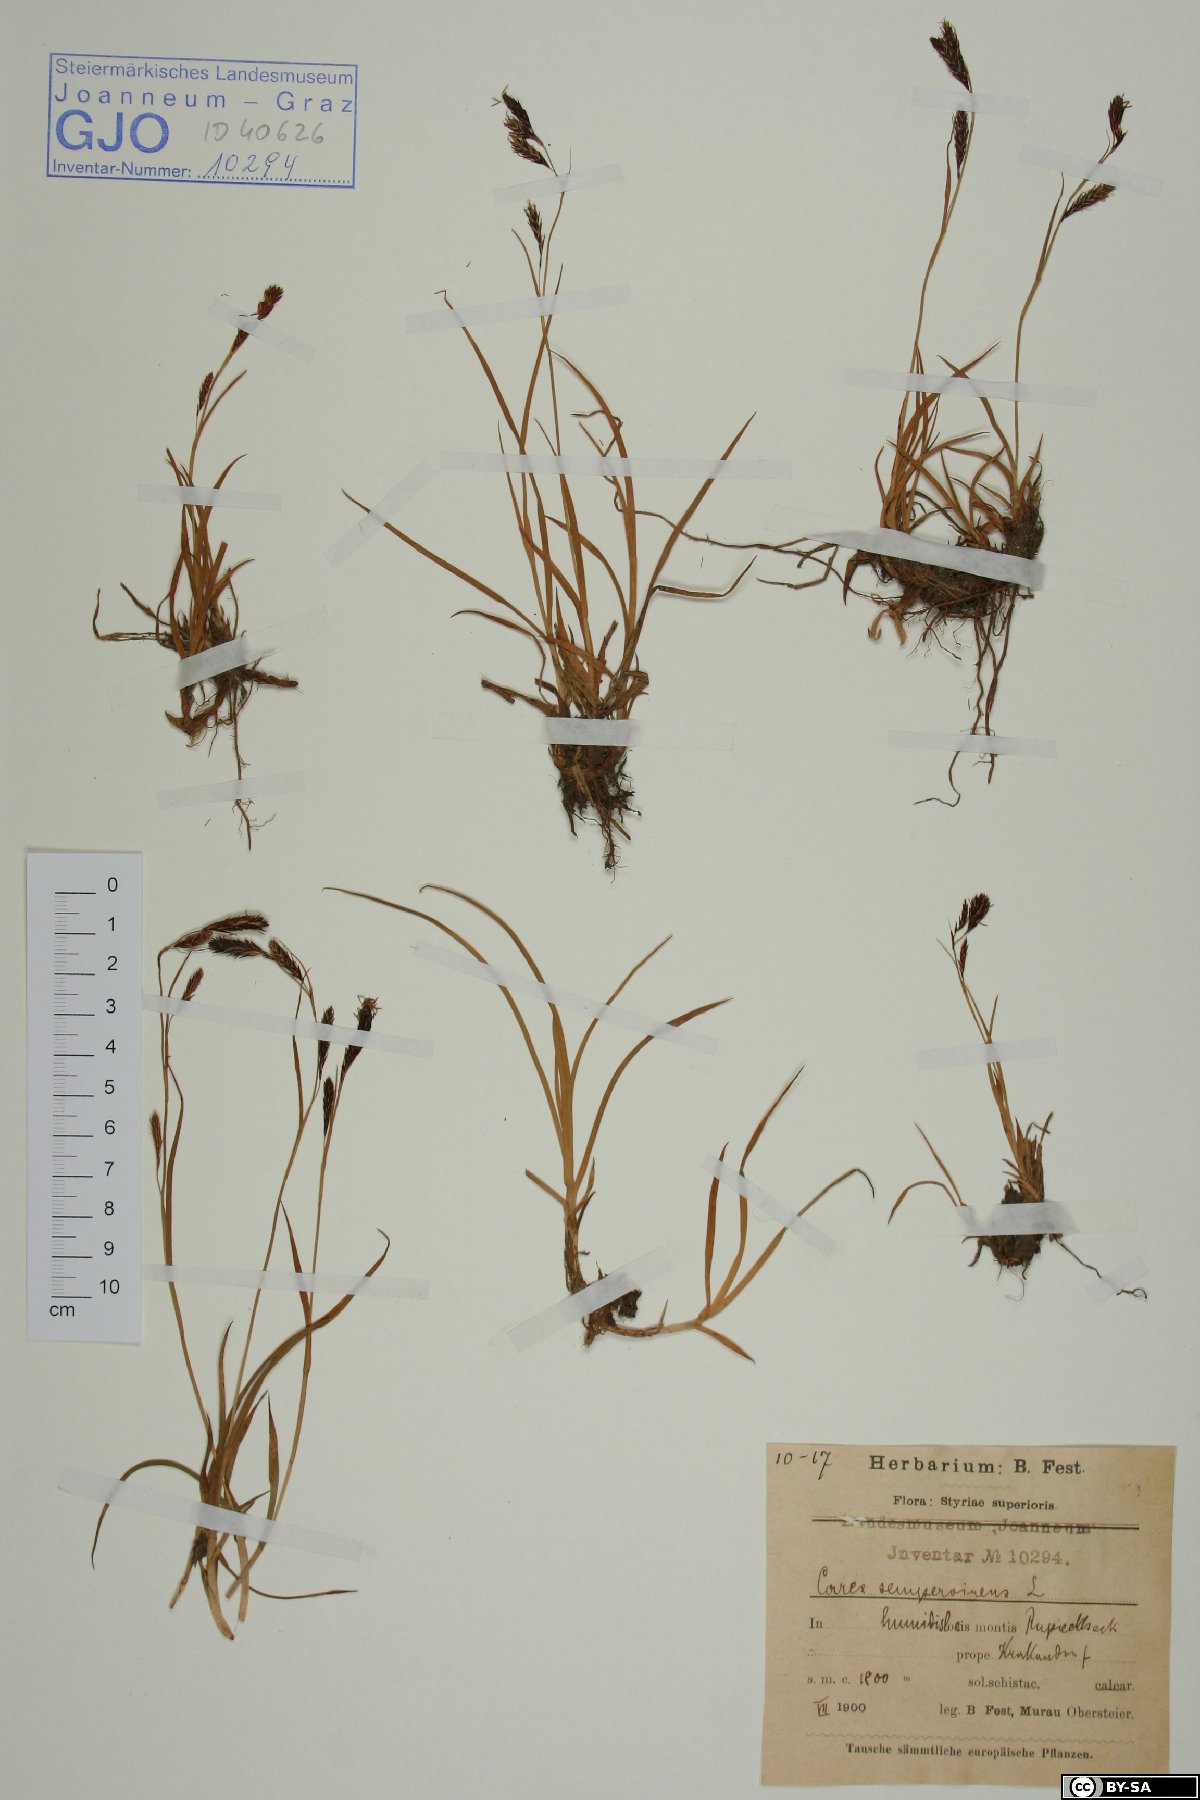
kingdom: Plantae
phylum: Tracheophyta
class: Liliopsida
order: Poales
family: Cyperaceae
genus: Carex
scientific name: Carex sempervirens
